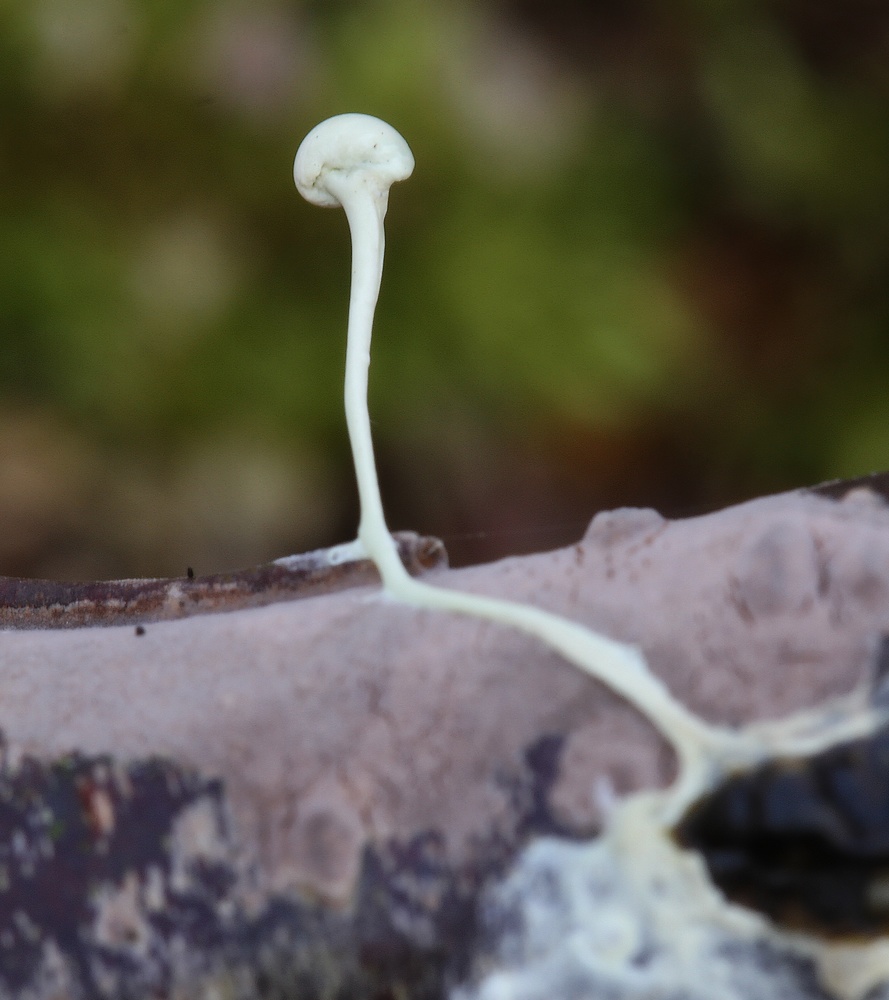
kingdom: Fungi
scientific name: Fungi
